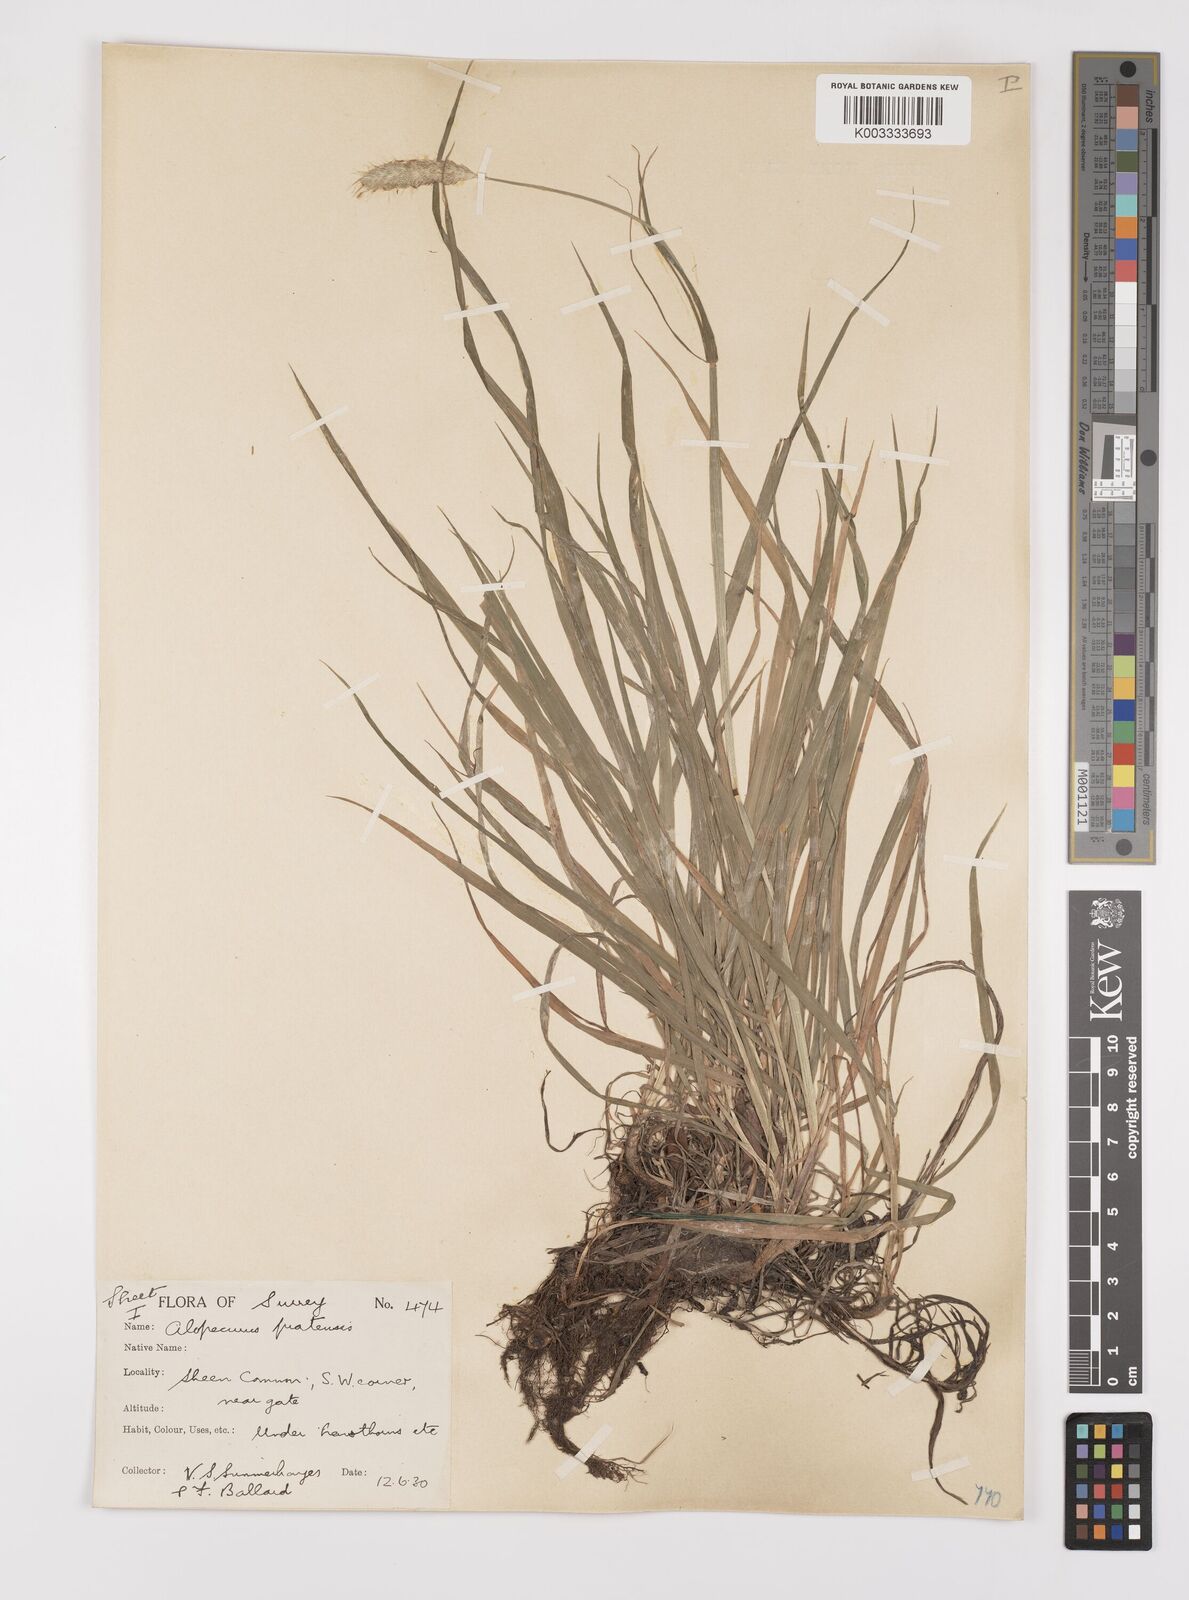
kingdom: Plantae
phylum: Tracheophyta
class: Liliopsida
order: Poales
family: Poaceae
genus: Alopecurus
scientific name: Alopecurus pratensis
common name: Meadow foxtail
